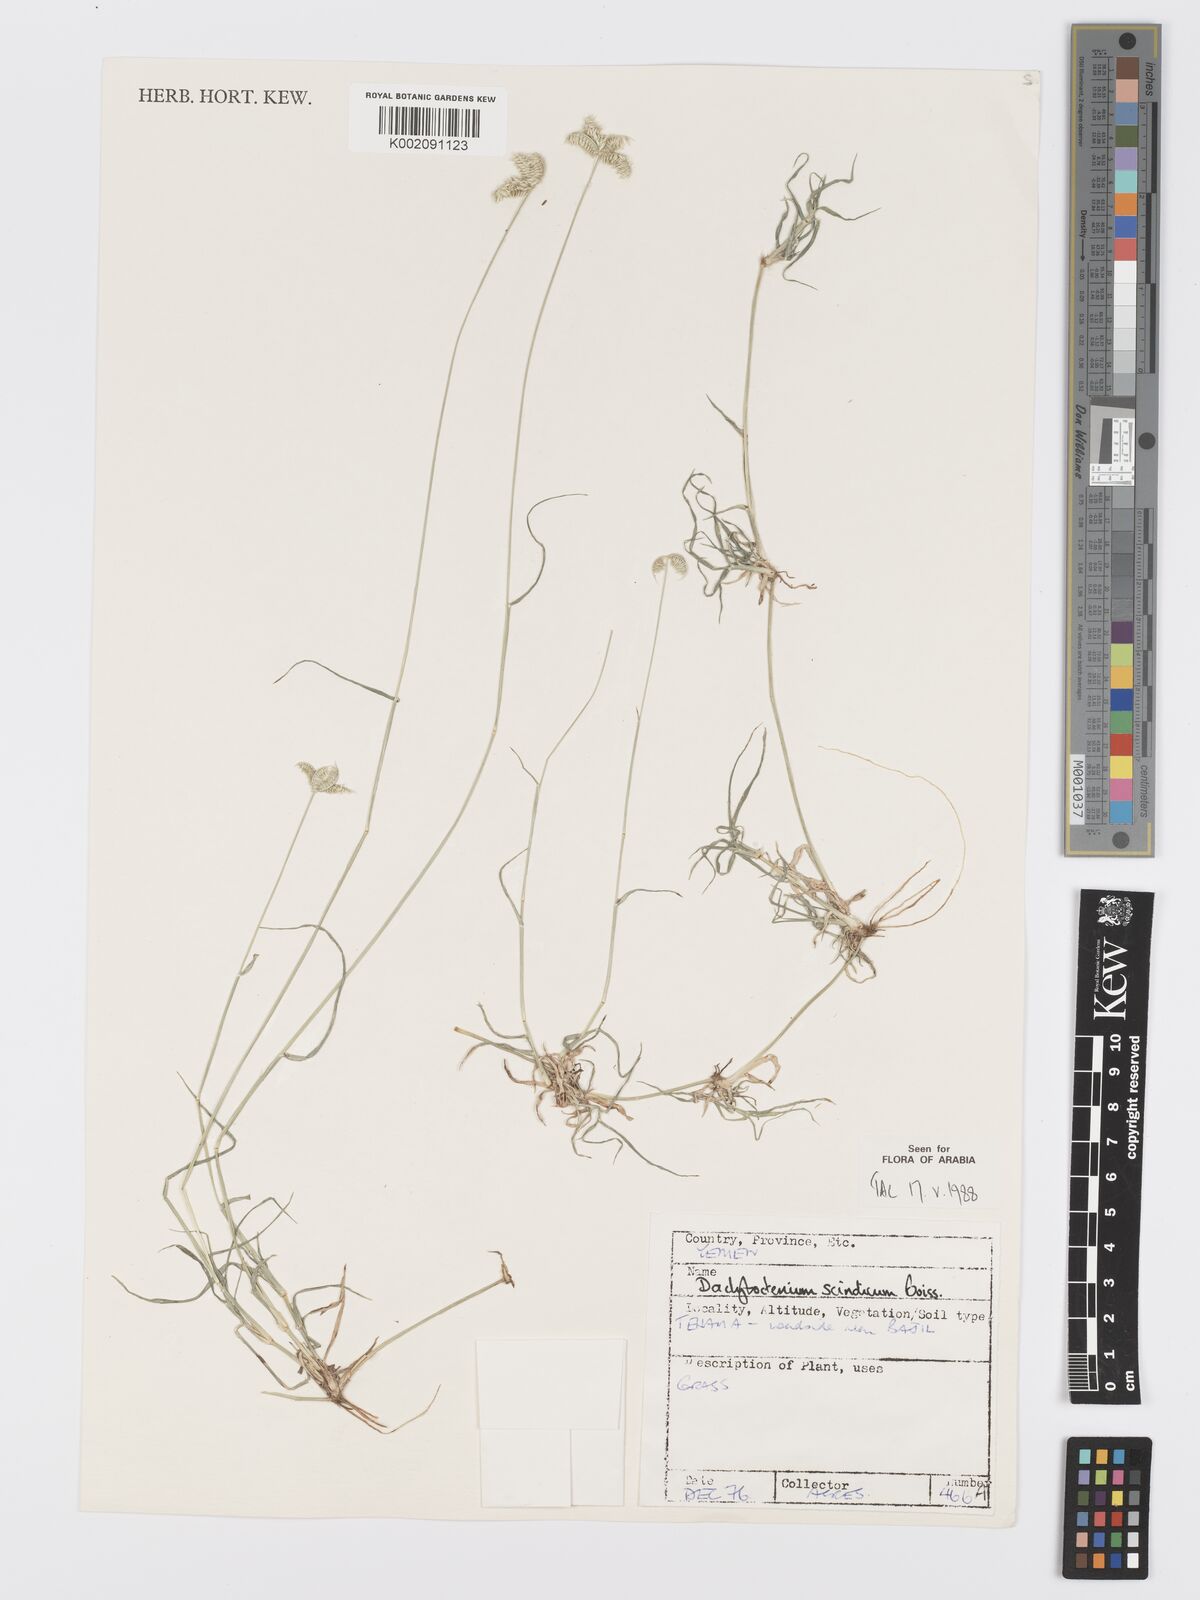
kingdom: Plantae
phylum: Tracheophyta
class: Liliopsida
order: Poales
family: Poaceae
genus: Dactyloctenium
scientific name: Dactyloctenium scindicum
